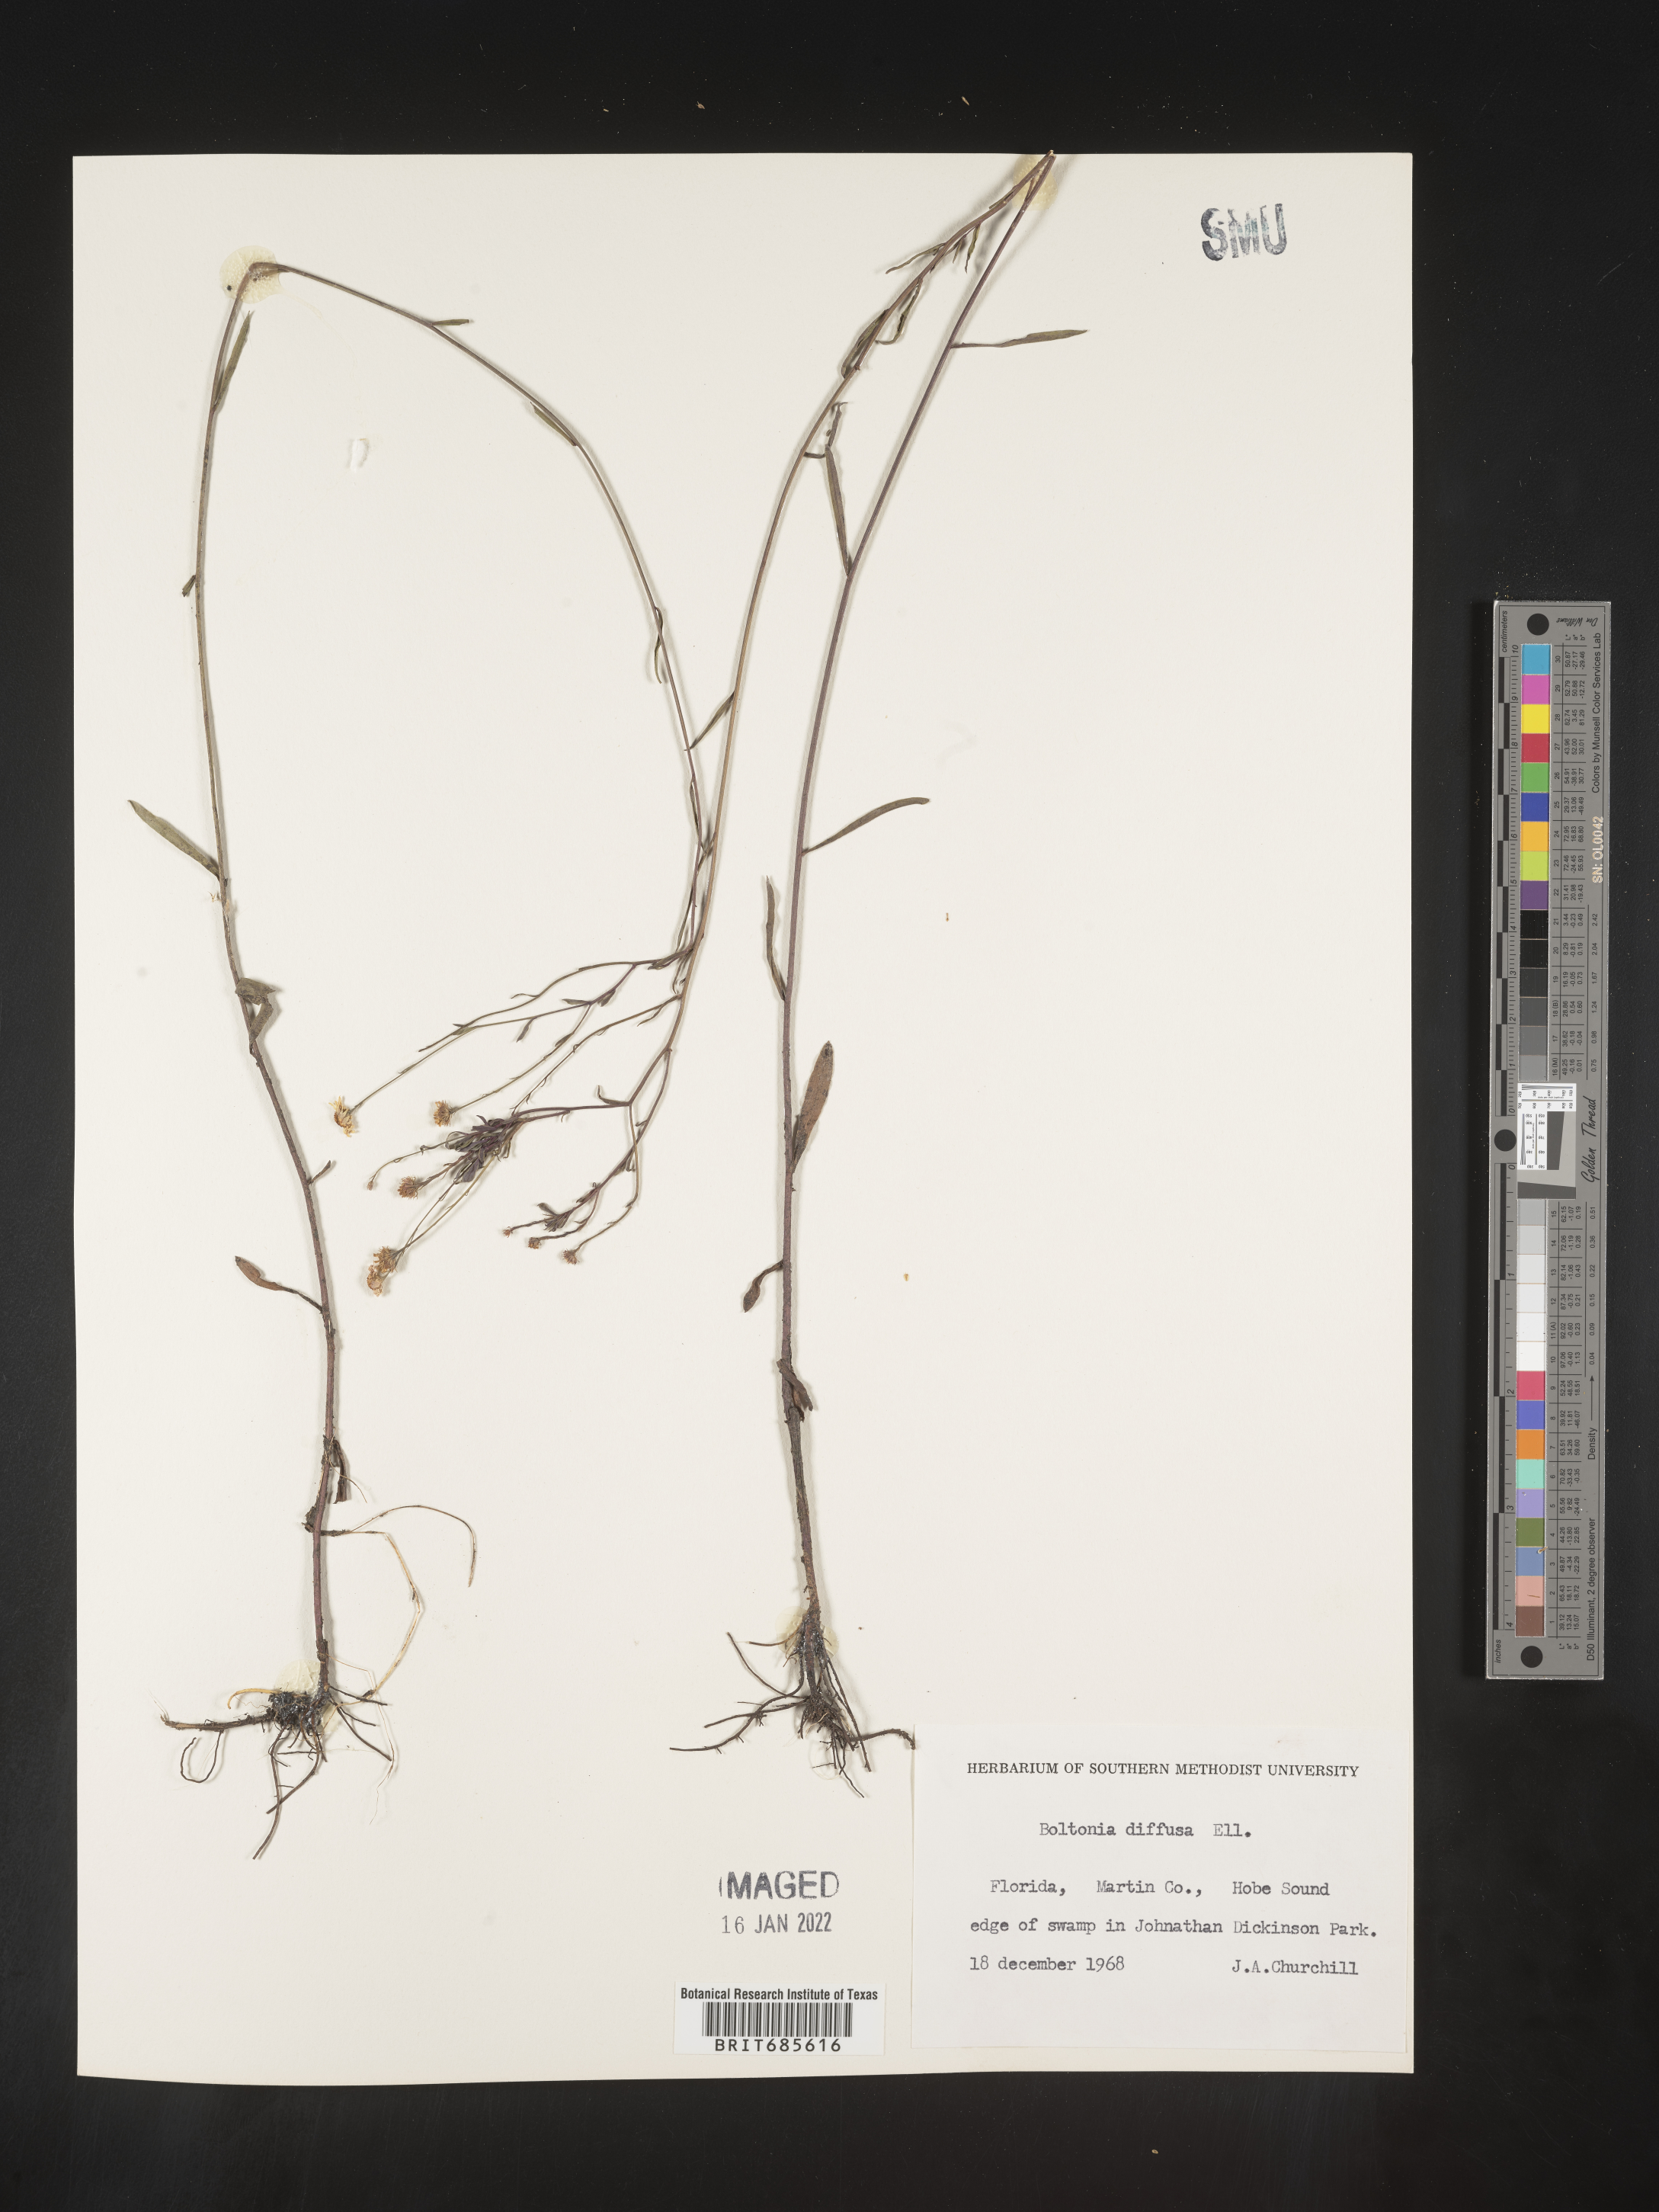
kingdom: Plantae
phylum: Tracheophyta
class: Magnoliopsida
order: Asterales
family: Asteraceae
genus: Boltonia
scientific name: Boltonia diffusa
